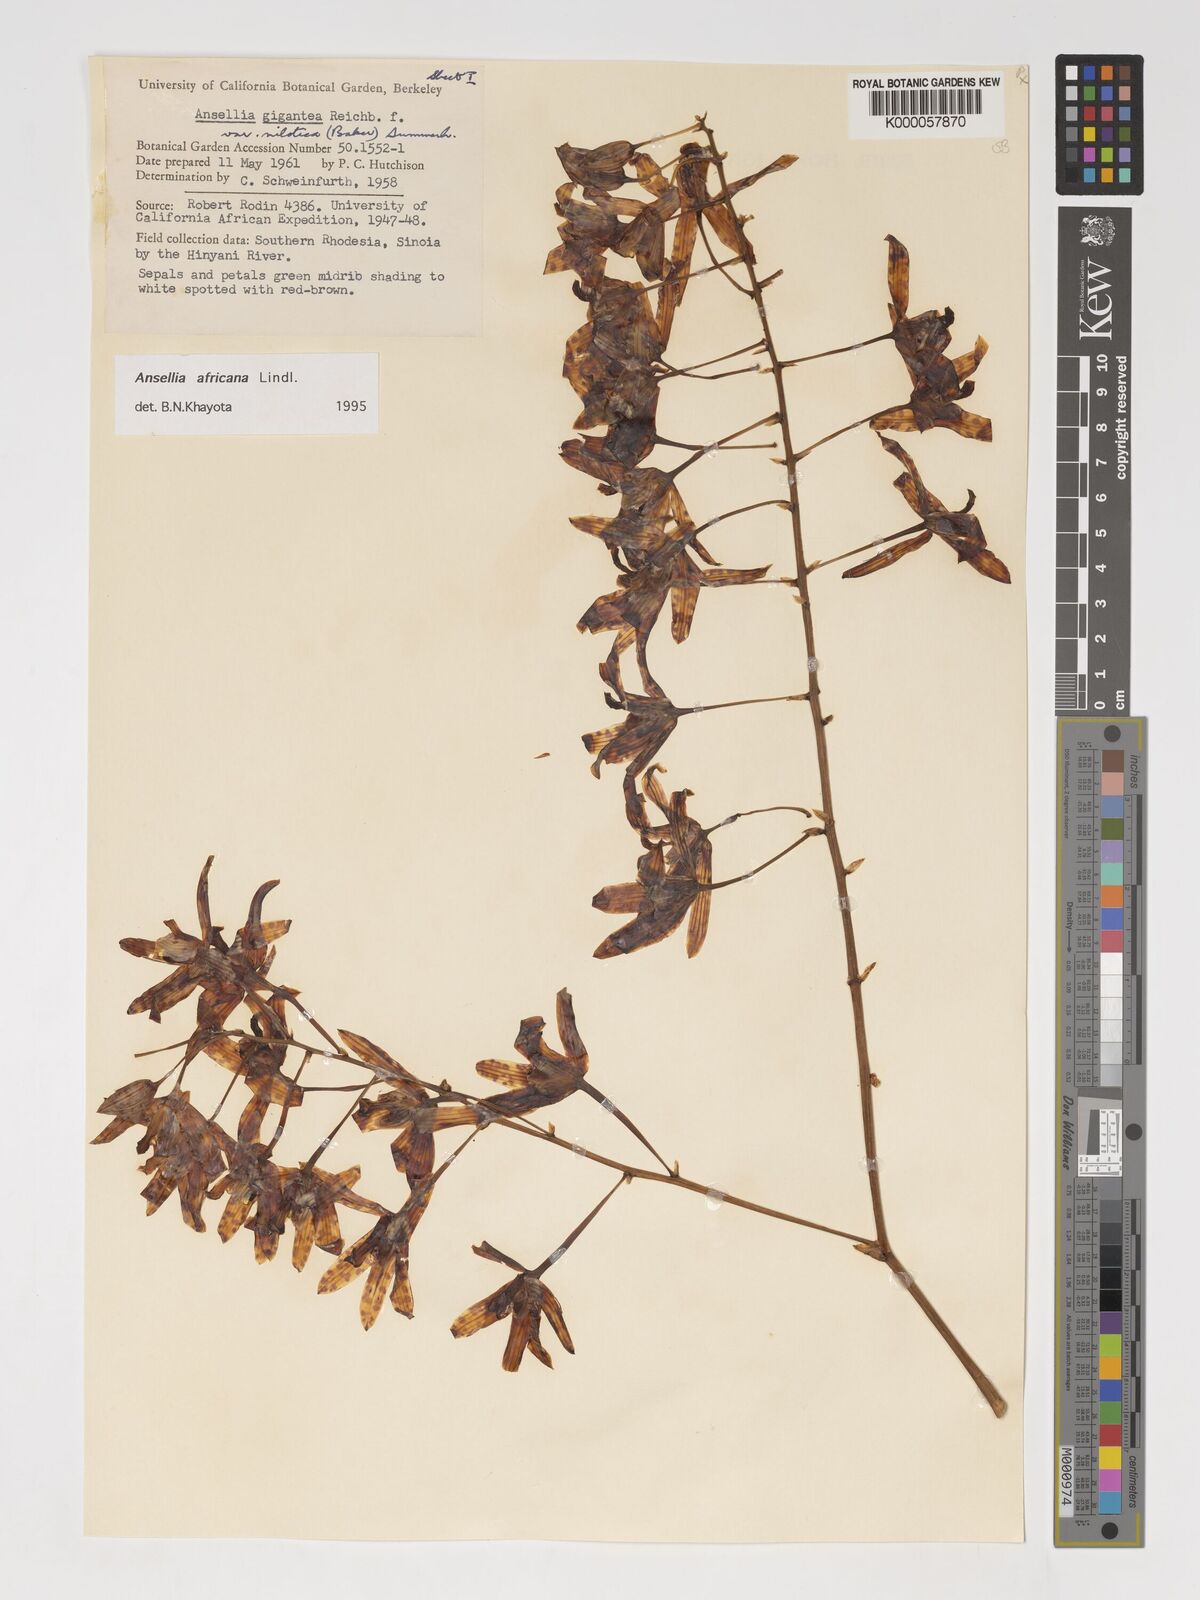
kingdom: Plantae
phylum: Tracheophyta
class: Liliopsida
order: Asparagales
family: Orchidaceae
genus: Ansellia
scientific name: Ansellia africana
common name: African ansellia
